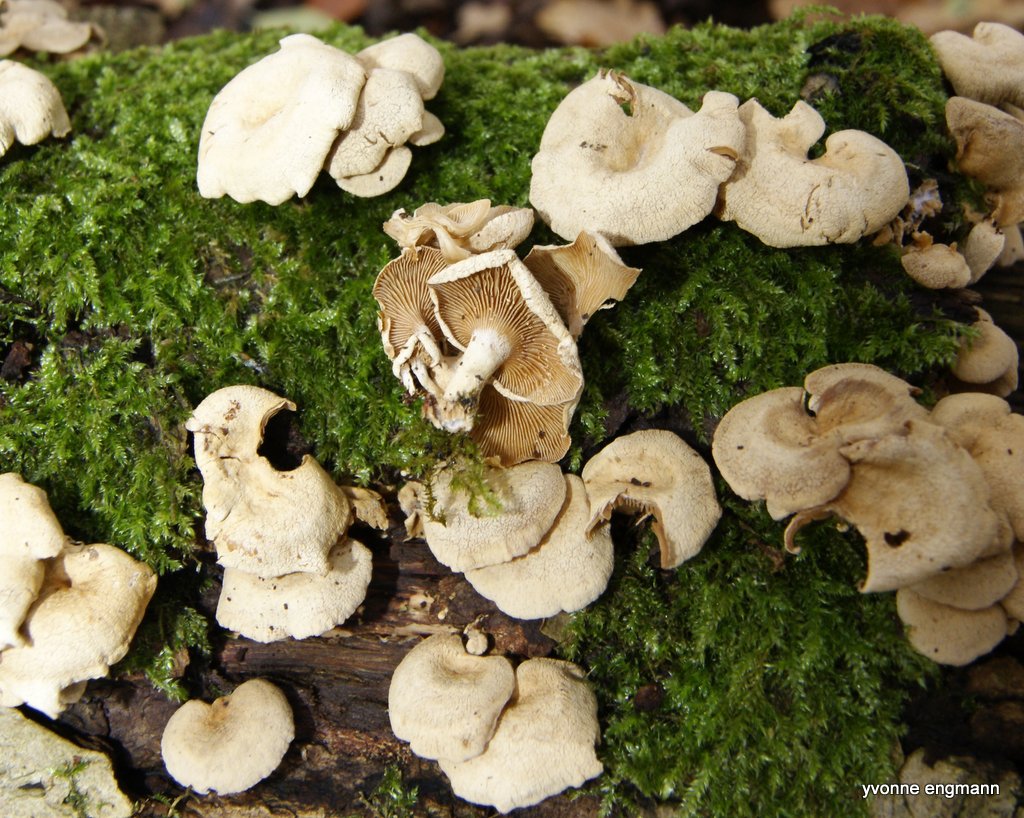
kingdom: Fungi
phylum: Basidiomycota
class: Agaricomycetes
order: Agaricales
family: Mycenaceae
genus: Panellus
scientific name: Panellus stipticus
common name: kliddet epaulethat
